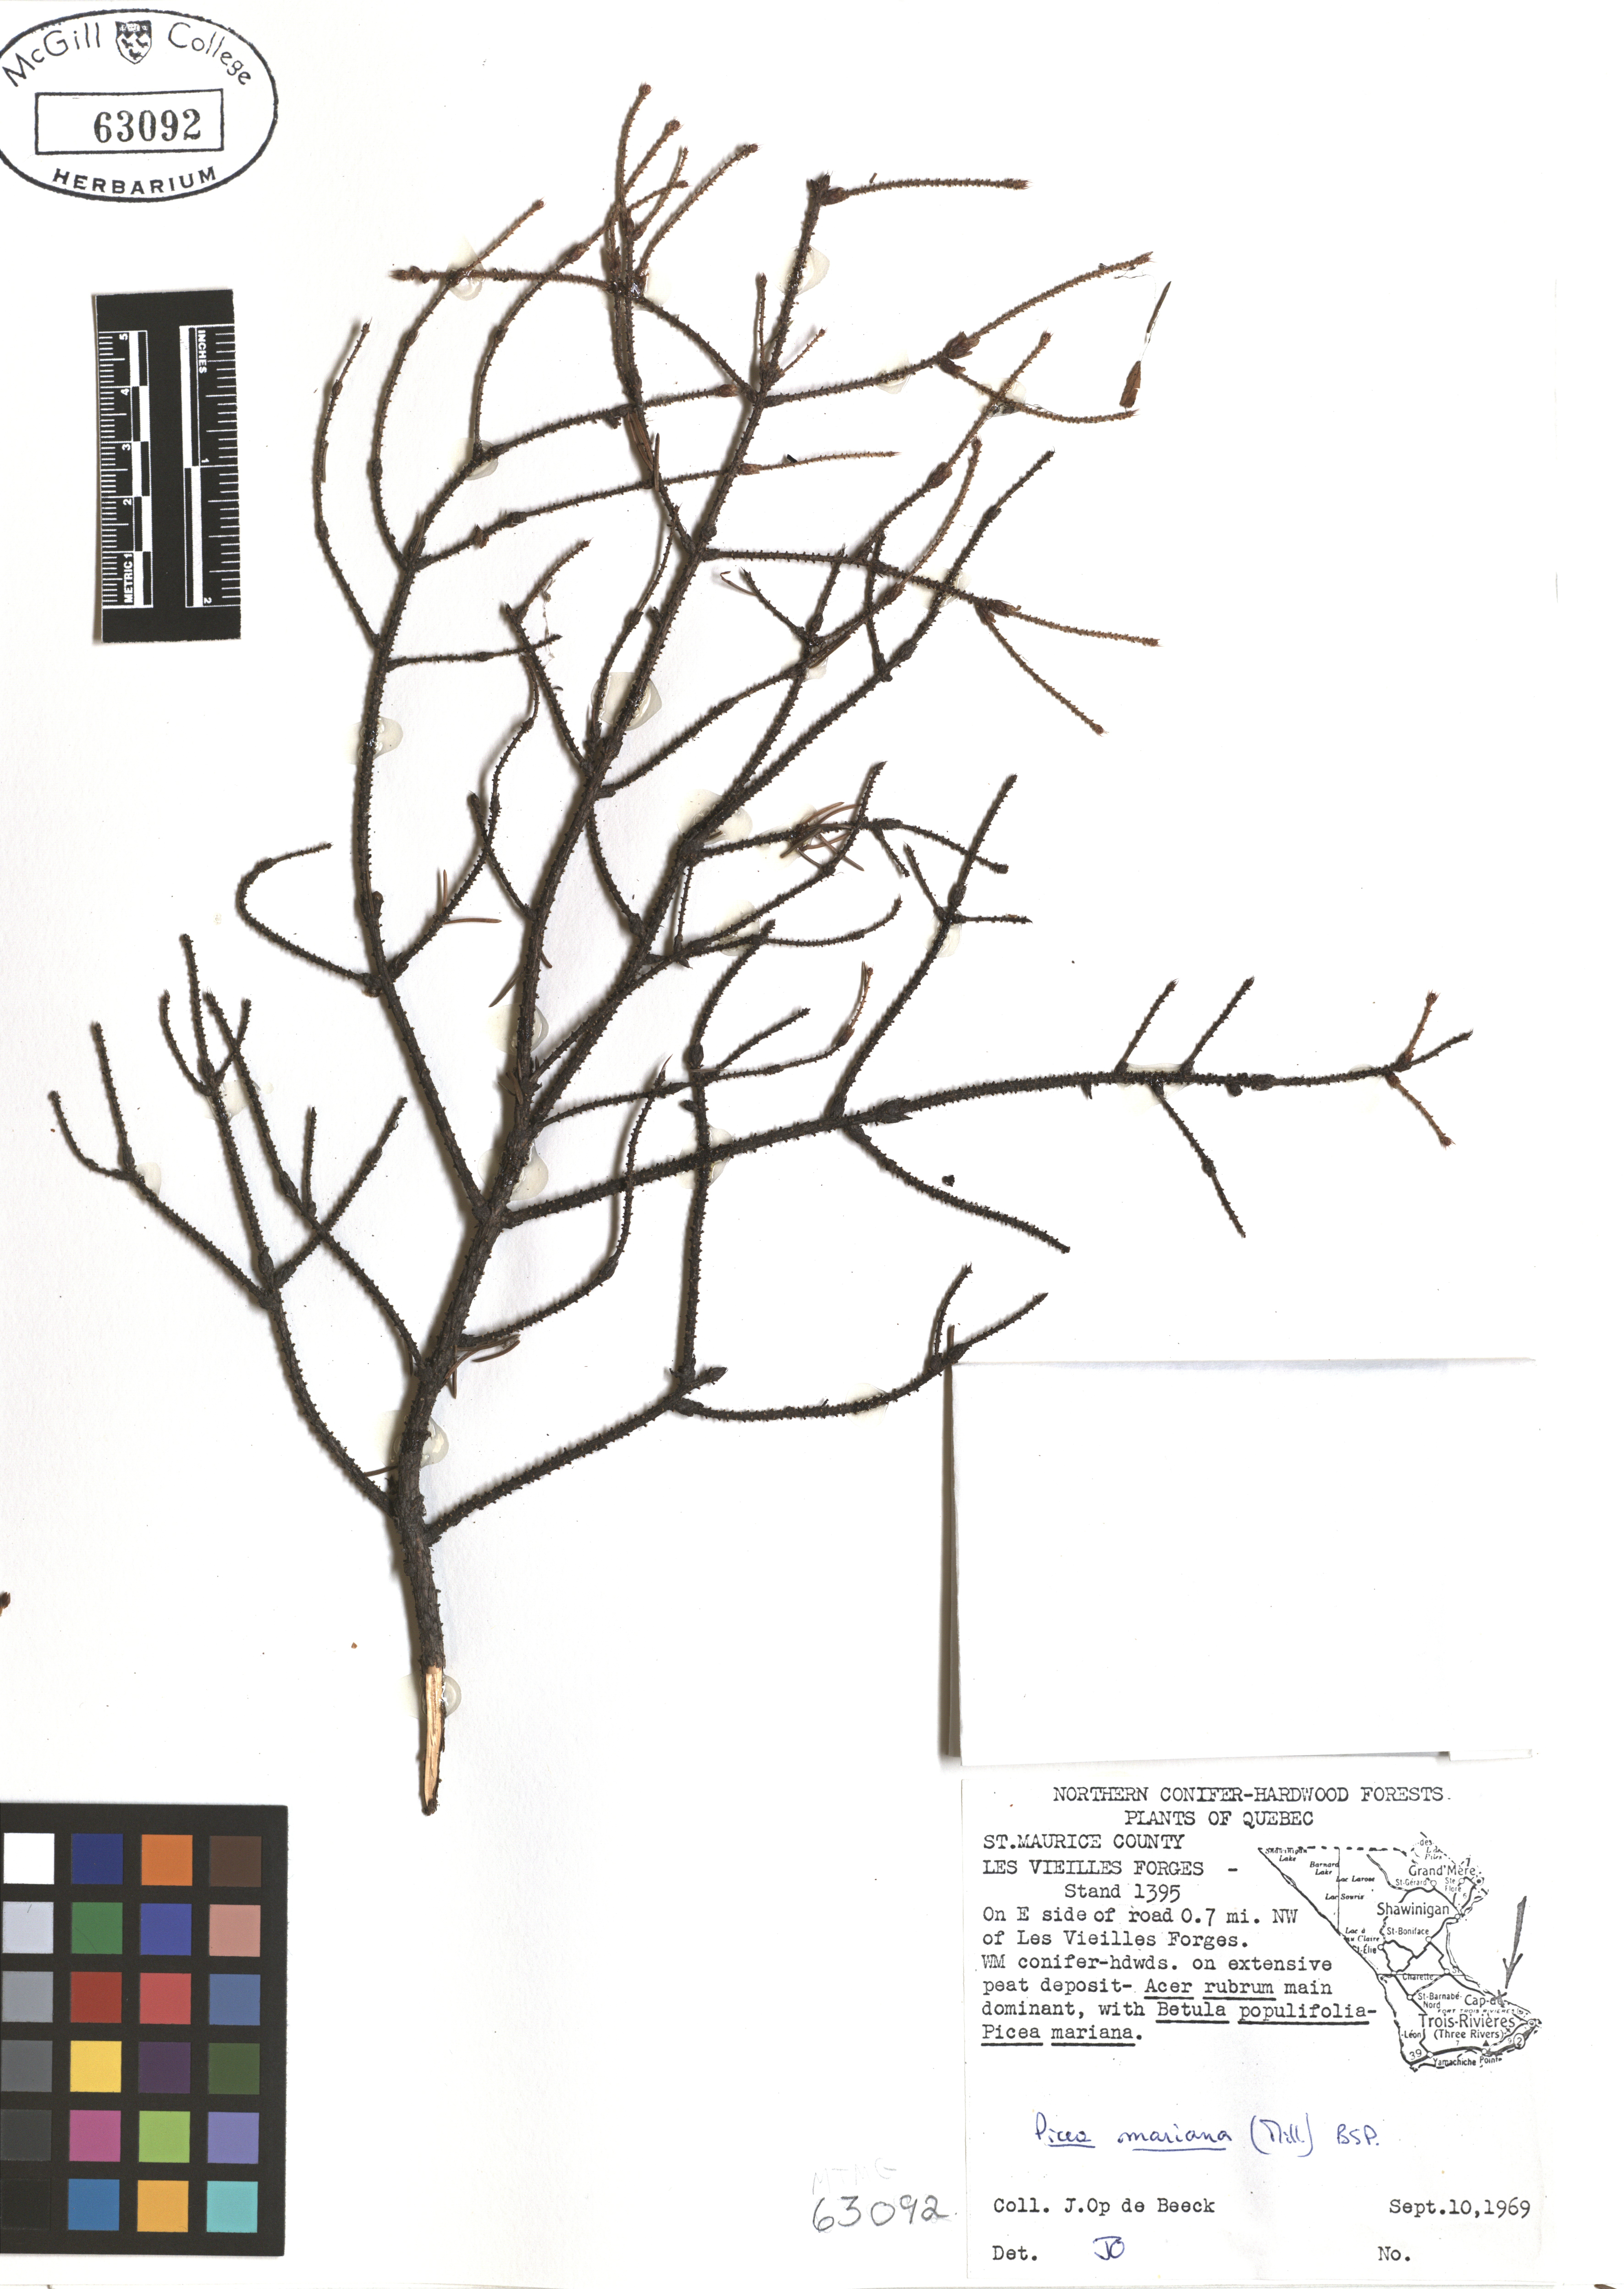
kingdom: Plantae
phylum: Tracheophyta
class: Pinopsida
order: Pinales
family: Pinaceae
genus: Picea
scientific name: Picea mariana
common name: Black spruce
